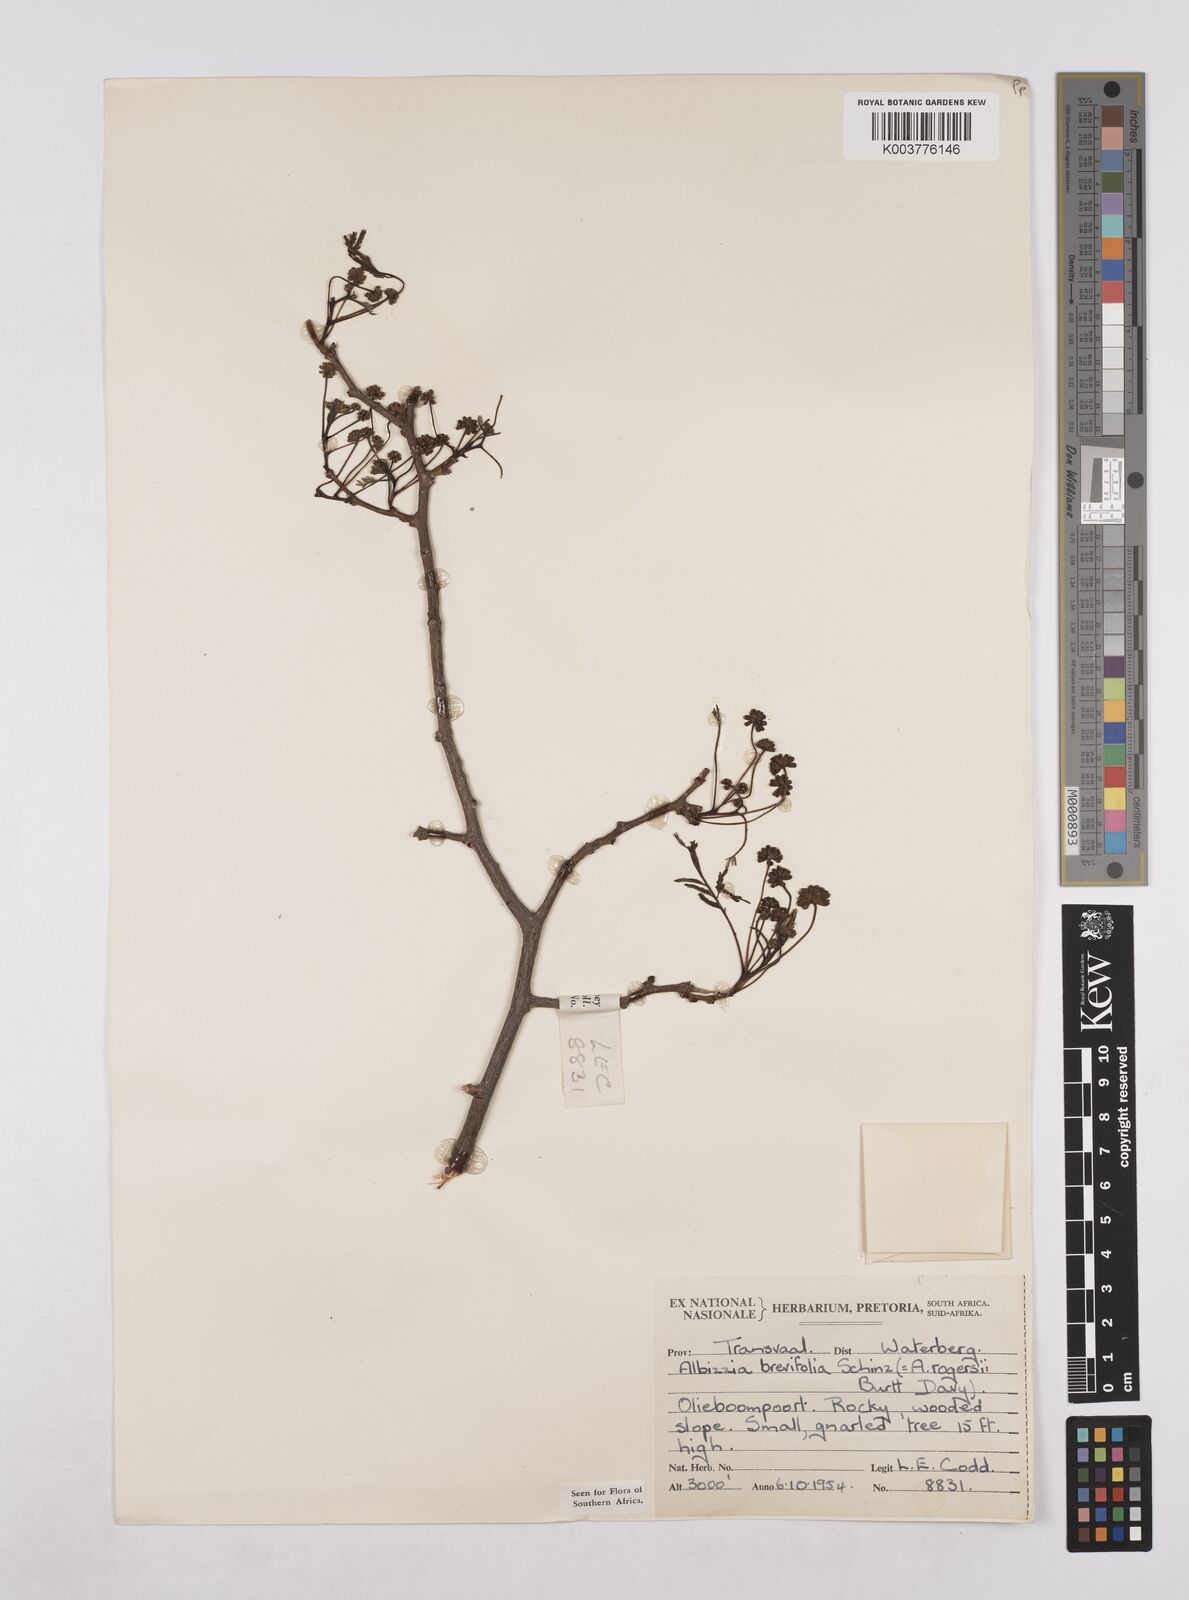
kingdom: Plantae
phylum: Tracheophyta
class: Magnoliopsida
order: Fabales
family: Fabaceae
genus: Albizia
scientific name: Albizia brevifolia
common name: Rock false-thorn
